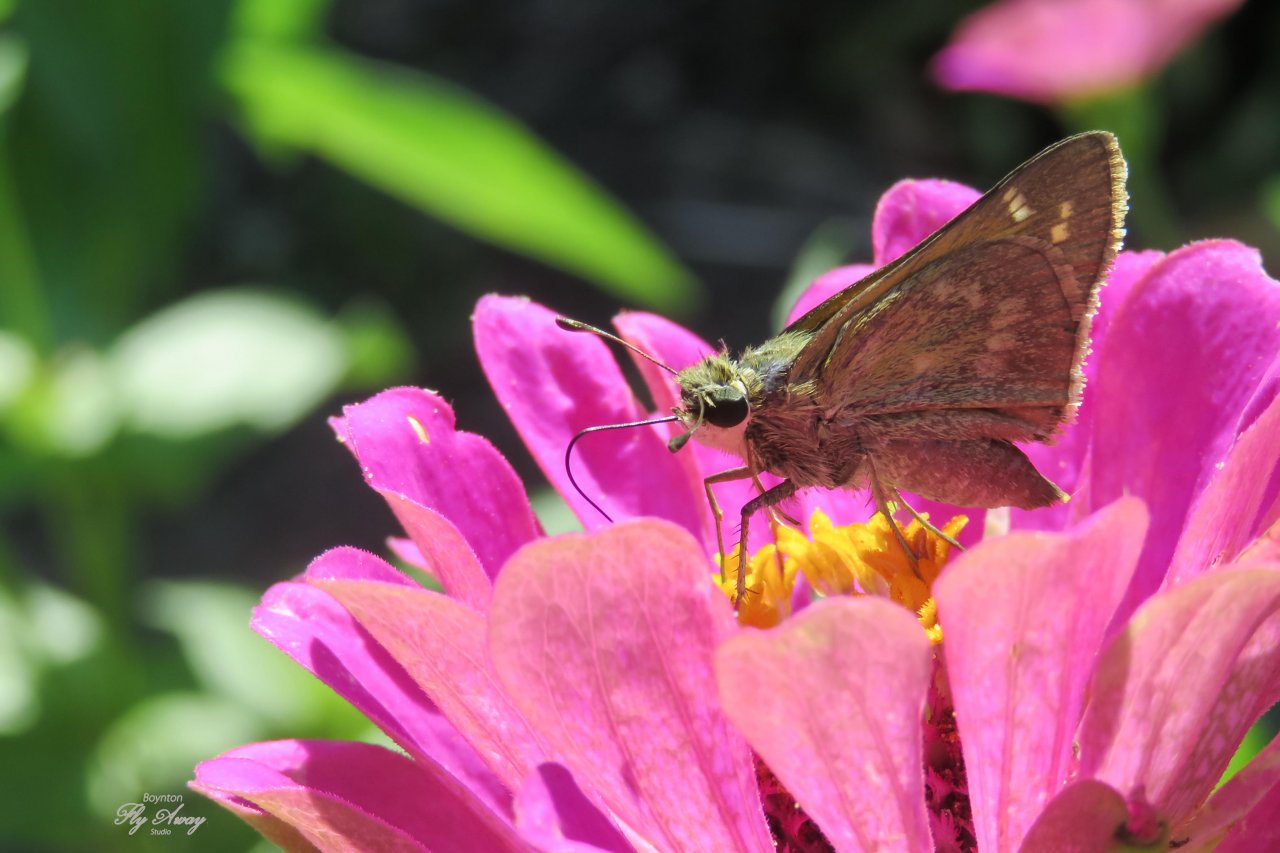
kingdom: Animalia
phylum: Arthropoda
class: Insecta
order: Lepidoptera
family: Hesperiidae
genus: Atalopedes
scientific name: Atalopedes campestris
